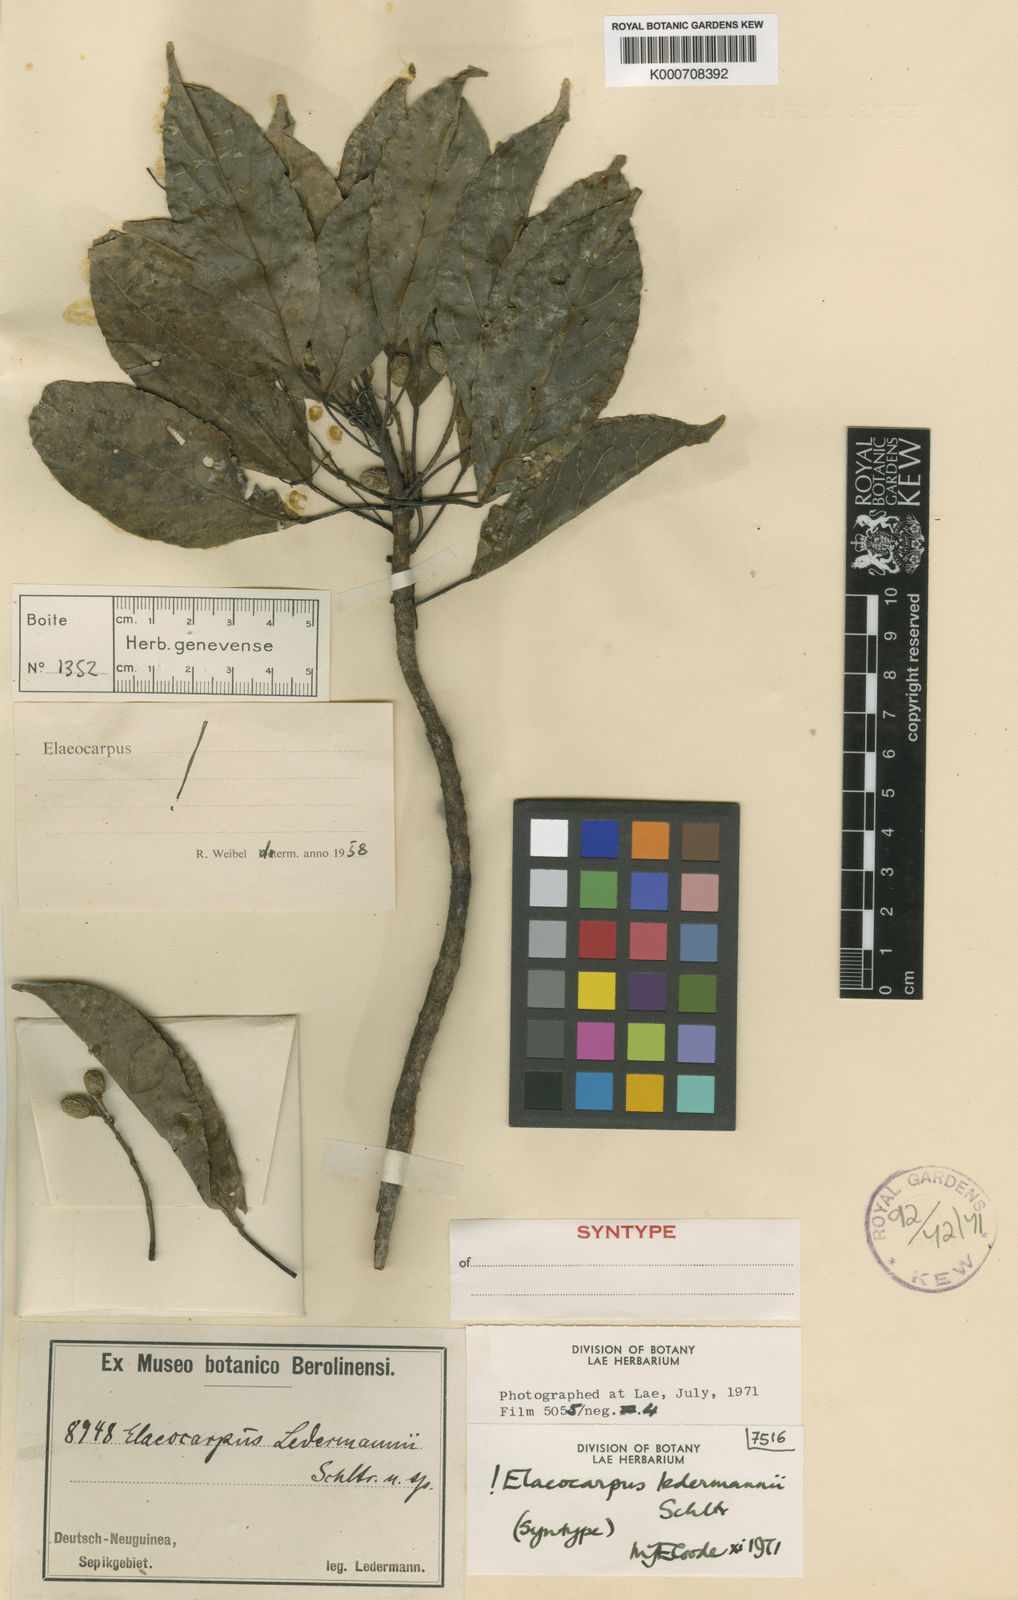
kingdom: Plantae
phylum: Tracheophyta
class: Magnoliopsida
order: Oxalidales
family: Elaeocarpaceae
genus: Elaeocarpus
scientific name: Elaeocarpus ledermannii
